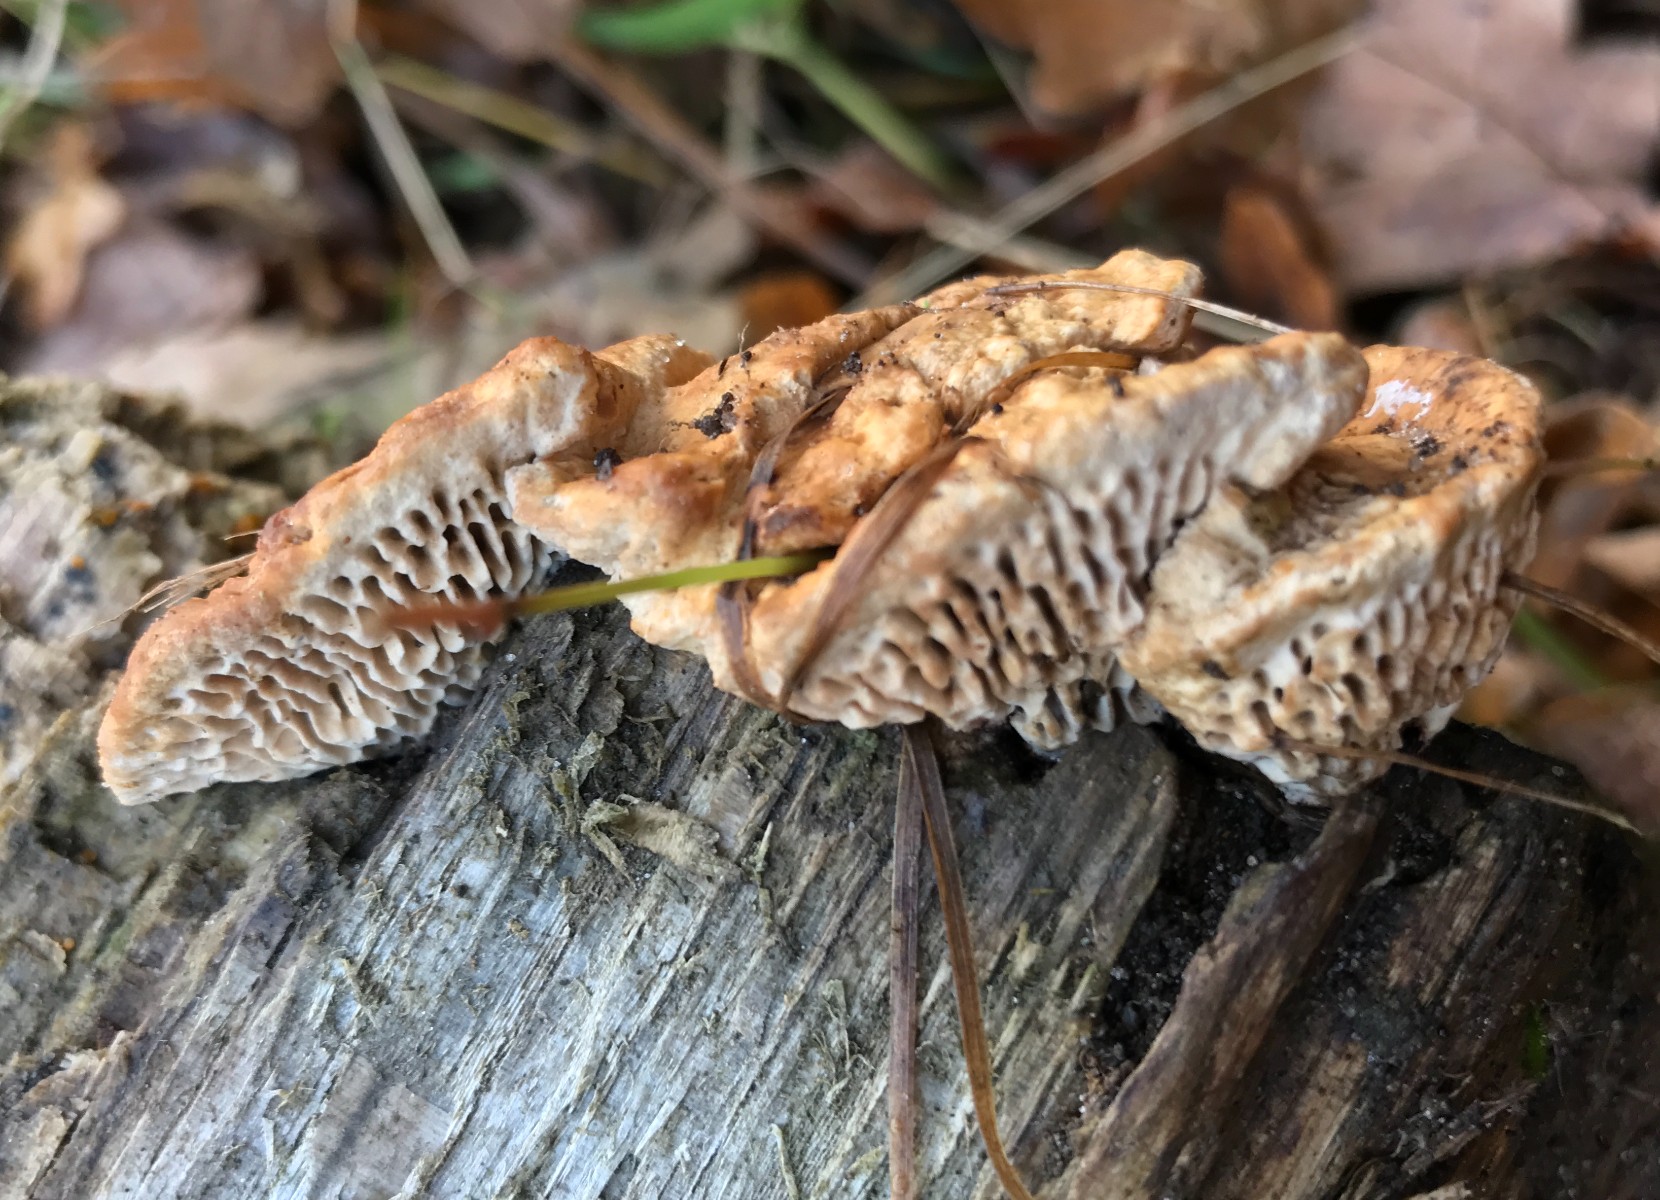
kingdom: Fungi
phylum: Basidiomycota
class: Agaricomycetes
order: Polyporales
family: Fomitopsidaceae
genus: Daedalea
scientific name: Daedalea quercina
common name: ege-labyrintsvamp
